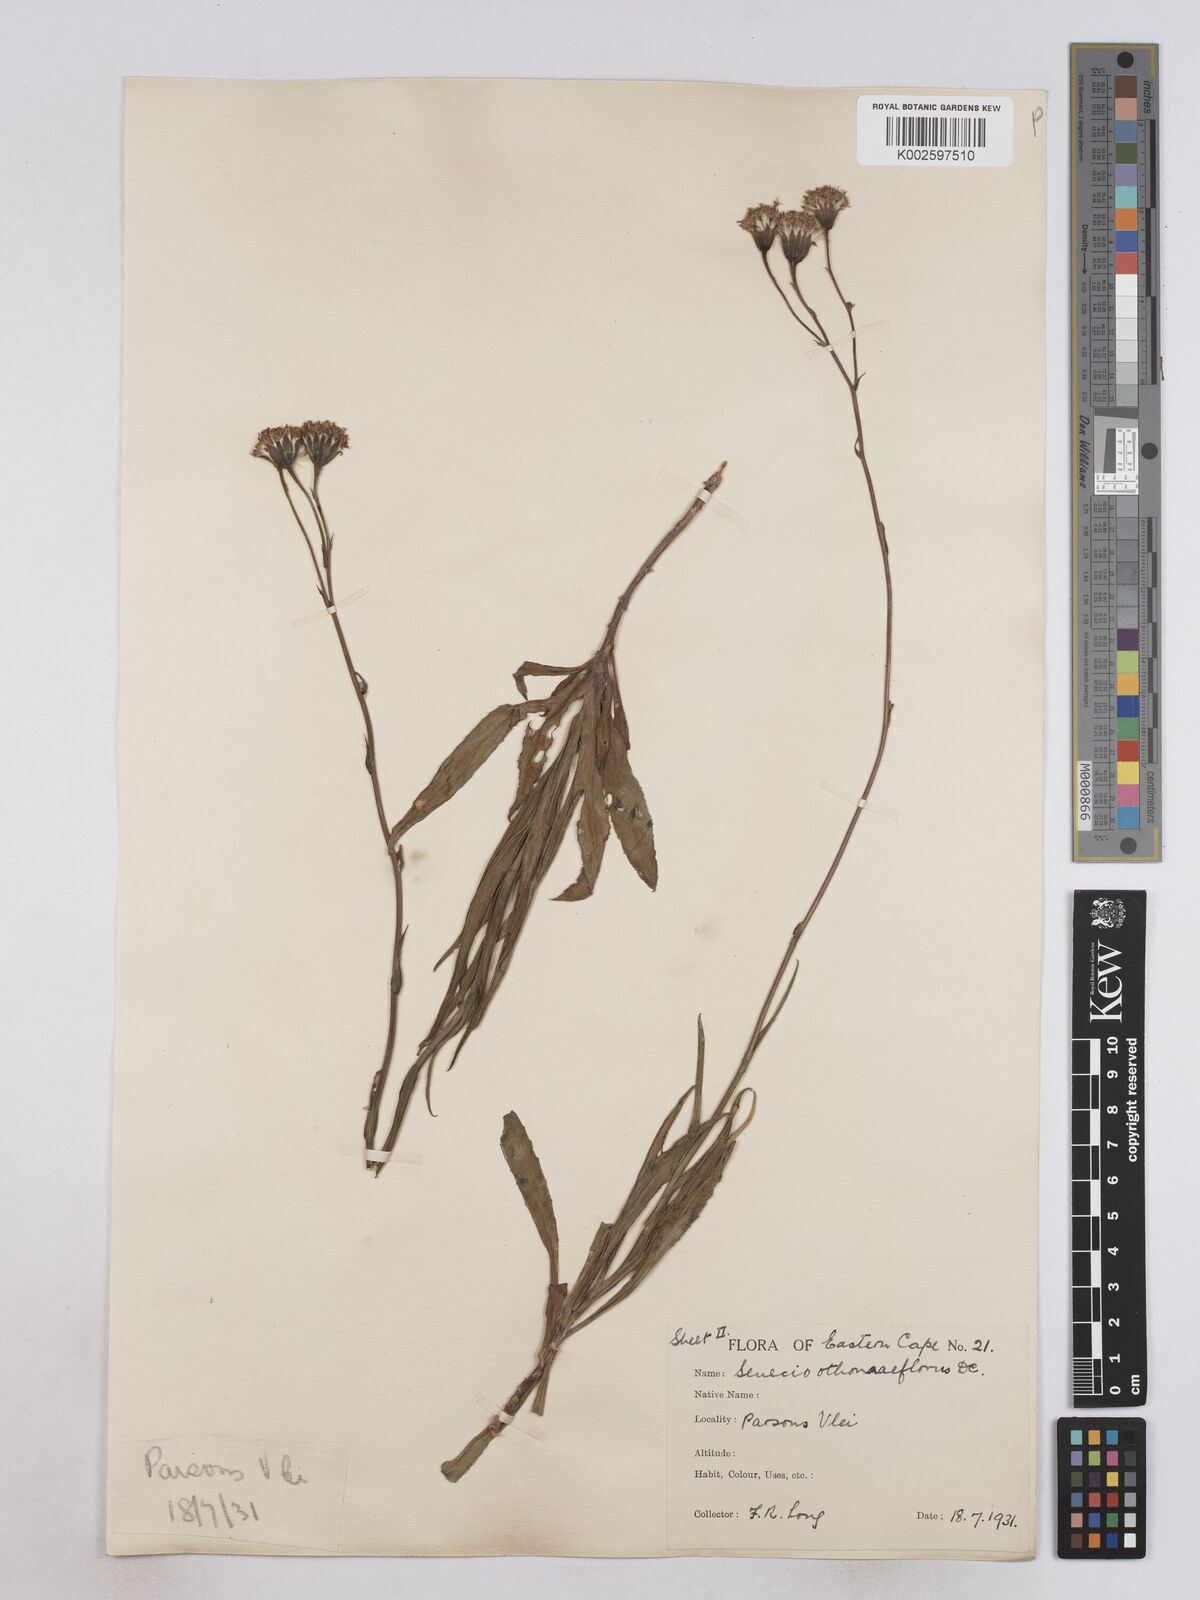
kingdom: Plantae
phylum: Tracheophyta
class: Magnoliopsida
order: Asterales
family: Asteraceae
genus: Senecio
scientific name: Senecio othonniflorus
